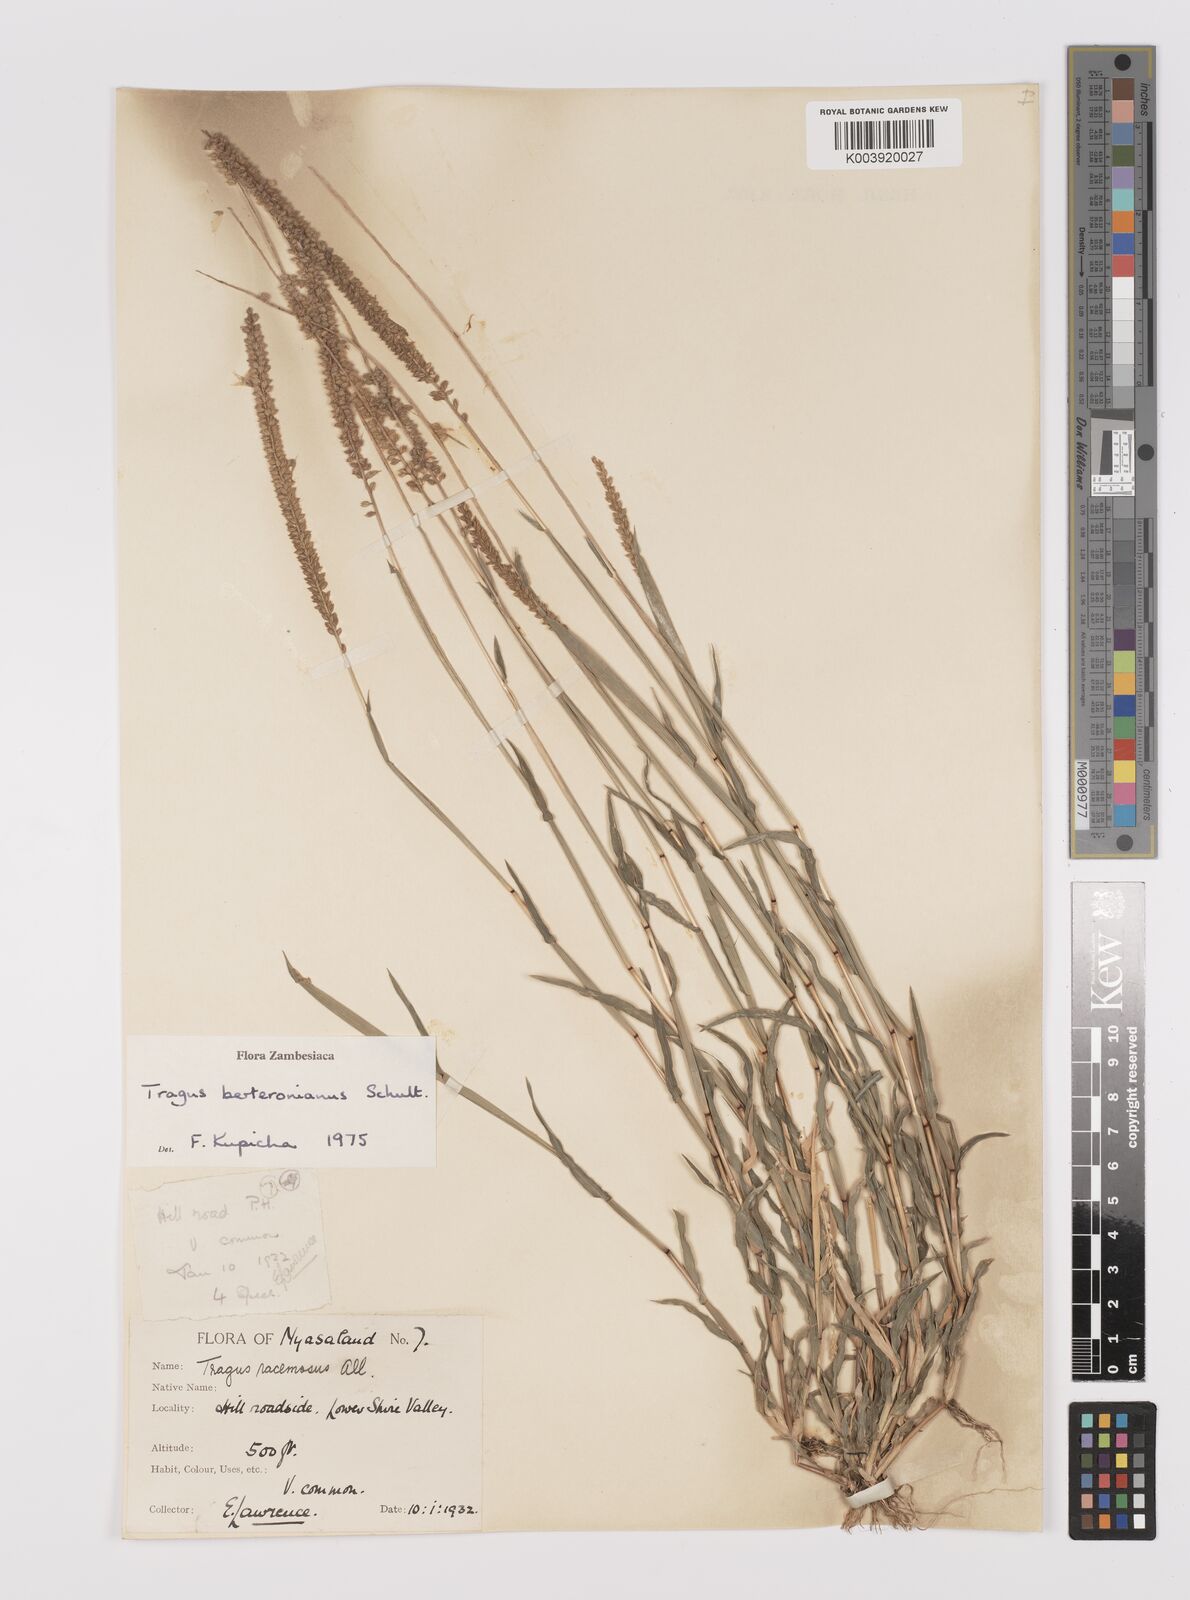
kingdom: Plantae
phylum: Tracheophyta
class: Liliopsida
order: Poales
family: Poaceae
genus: Tragus
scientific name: Tragus berteronianus
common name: African bur-grass
